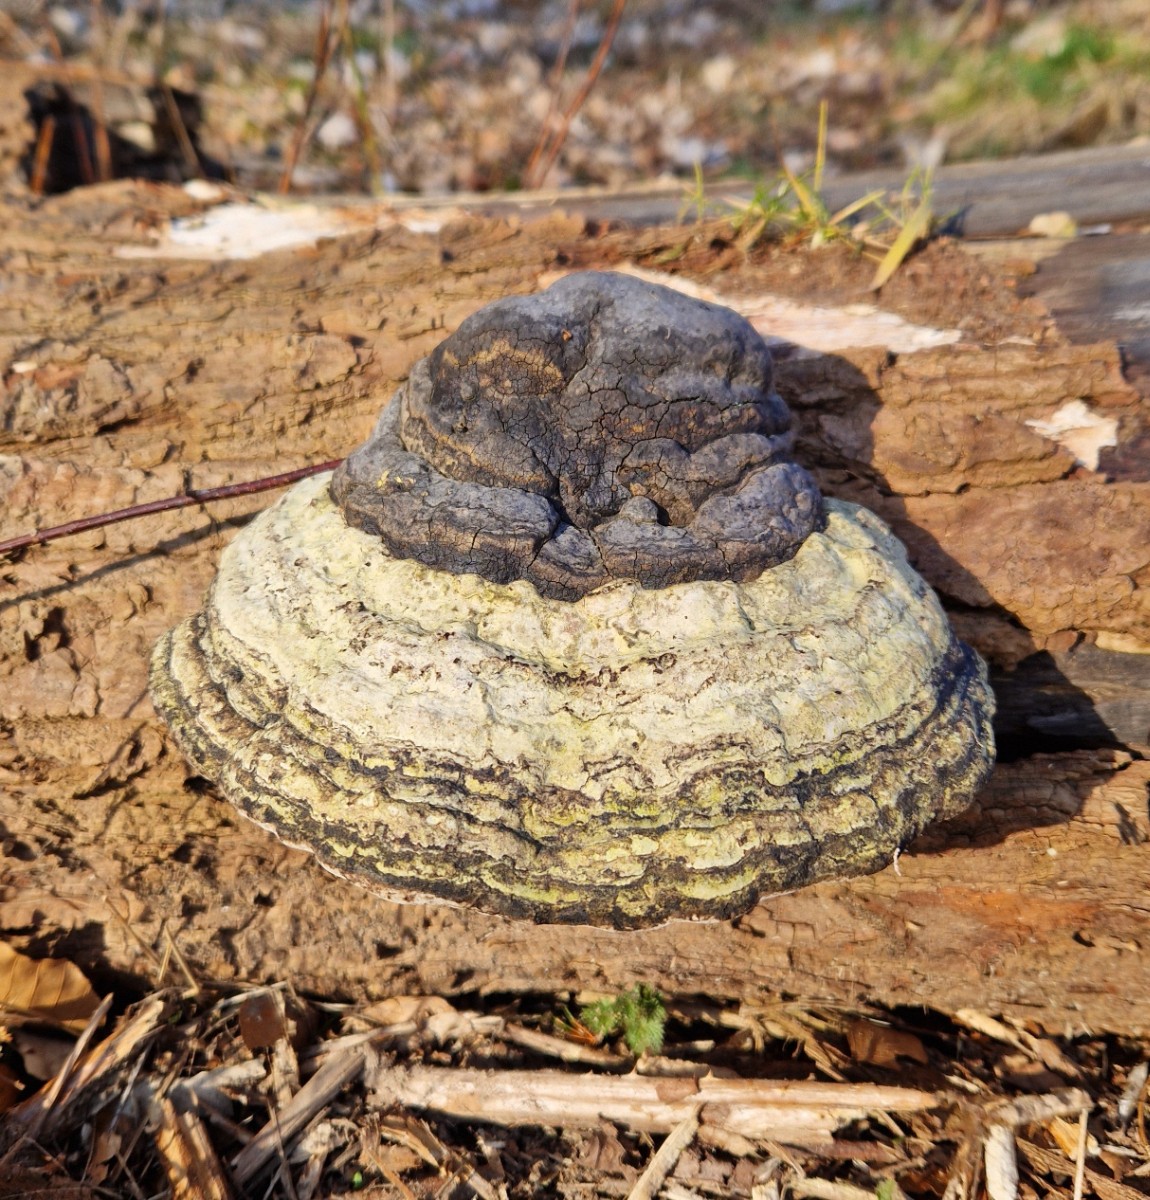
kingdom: Fungi
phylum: Basidiomycota
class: Agaricomycetes
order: Polyporales
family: Polyporaceae
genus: Fomes
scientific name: Fomes fomentarius
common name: tøndersvamp
